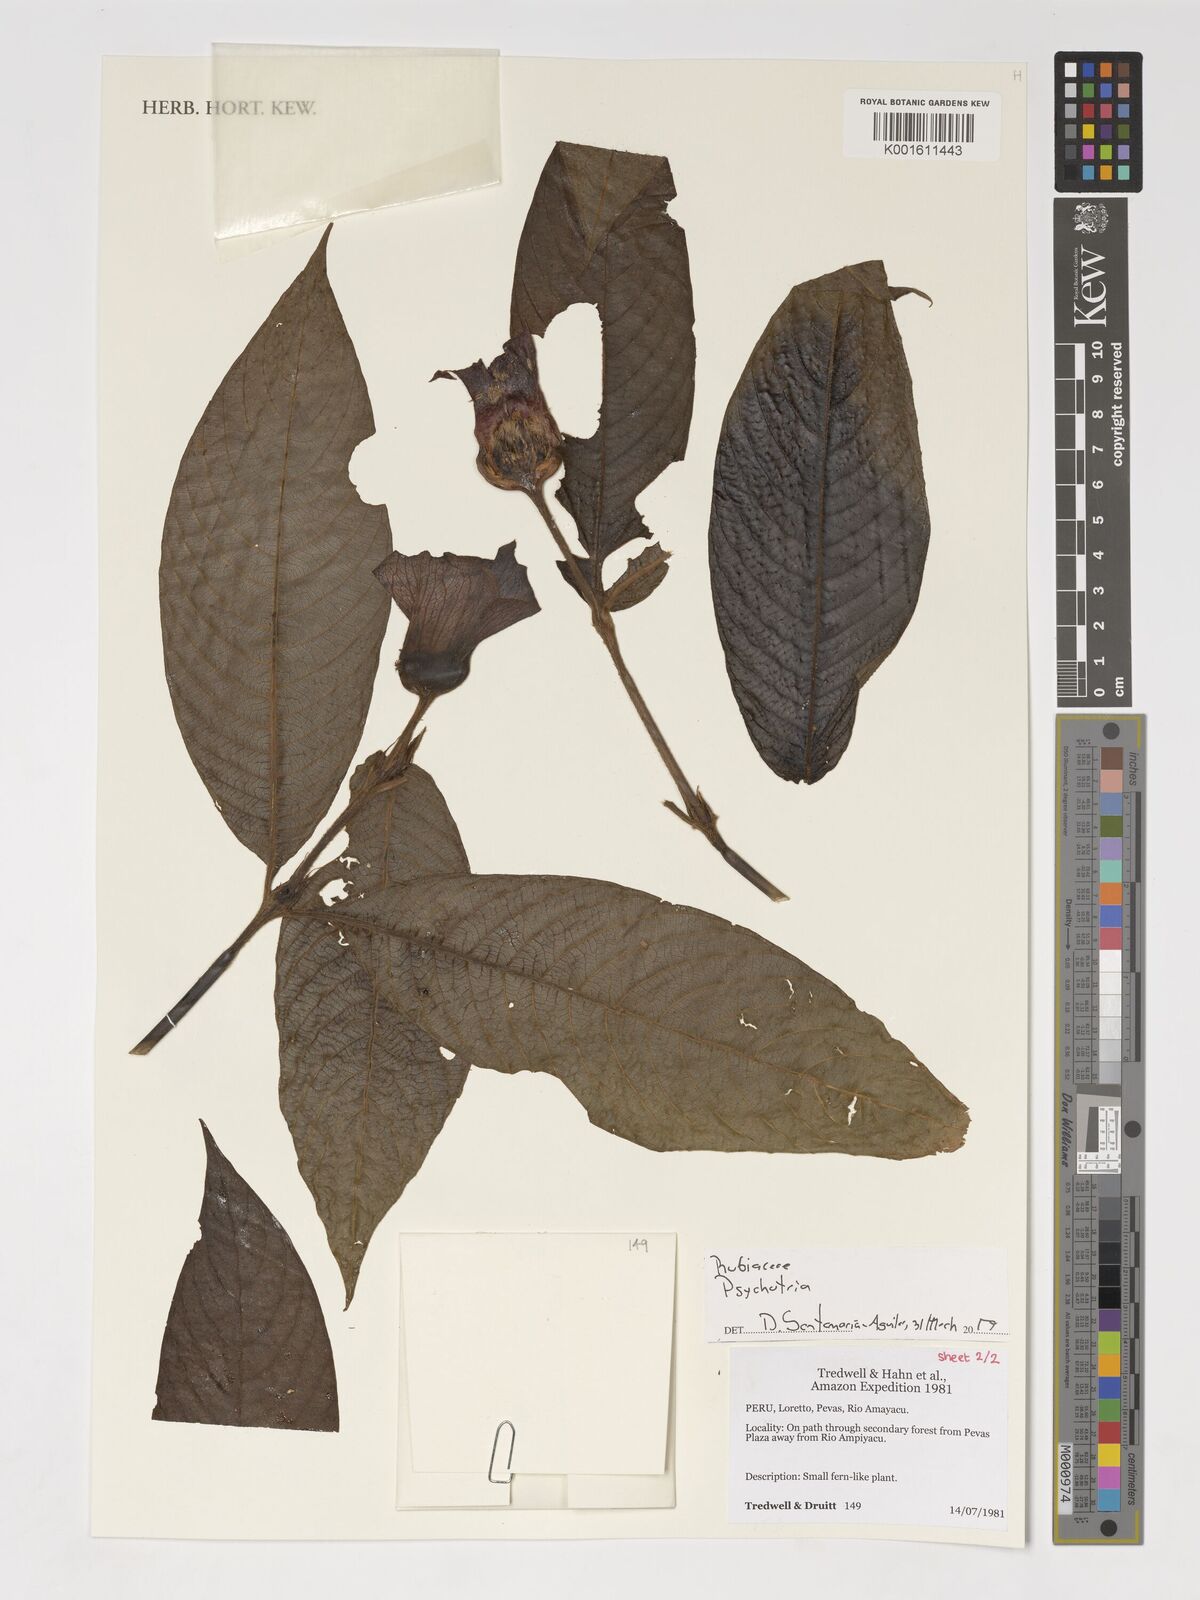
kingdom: Plantae
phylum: Tracheophyta
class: Magnoliopsida
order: Gentianales
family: Rubiaceae
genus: Psychotria
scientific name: Psychotria
